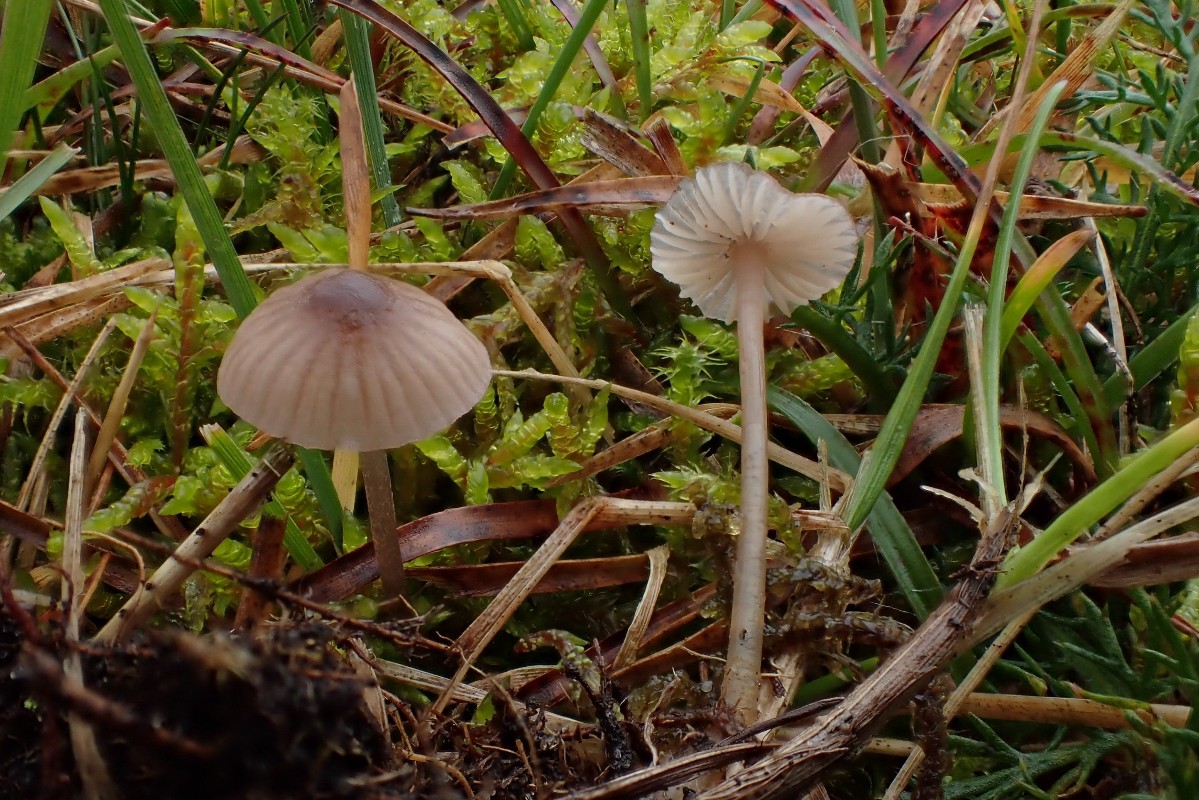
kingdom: Fungi
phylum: Basidiomycota
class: Agaricomycetes
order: Agaricales
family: Mycenaceae
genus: Mycena
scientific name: Mycena olivaceomarginata
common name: brunægget huesvamp
